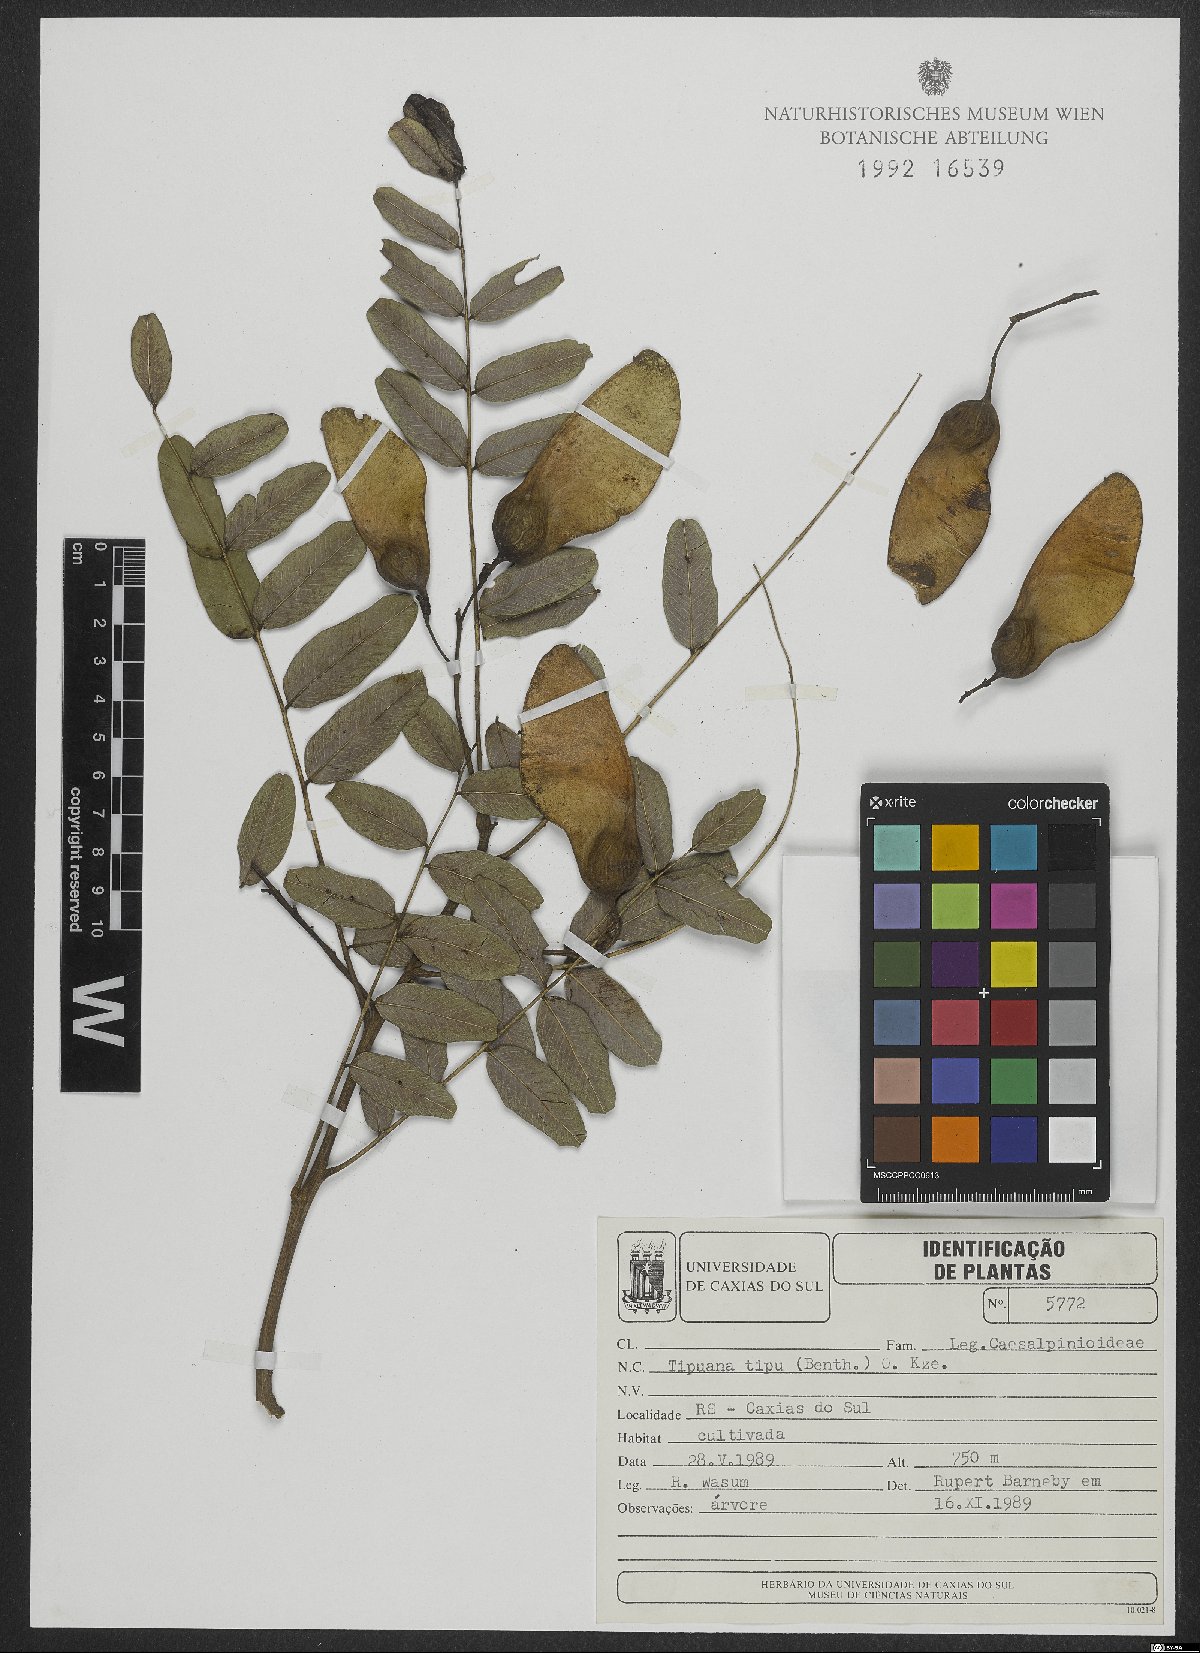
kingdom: Plantae
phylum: Tracheophyta
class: Magnoliopsida
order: Fabales
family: Fabaceae
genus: Tipuana
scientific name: Tipuana tipu
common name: Tiputree
